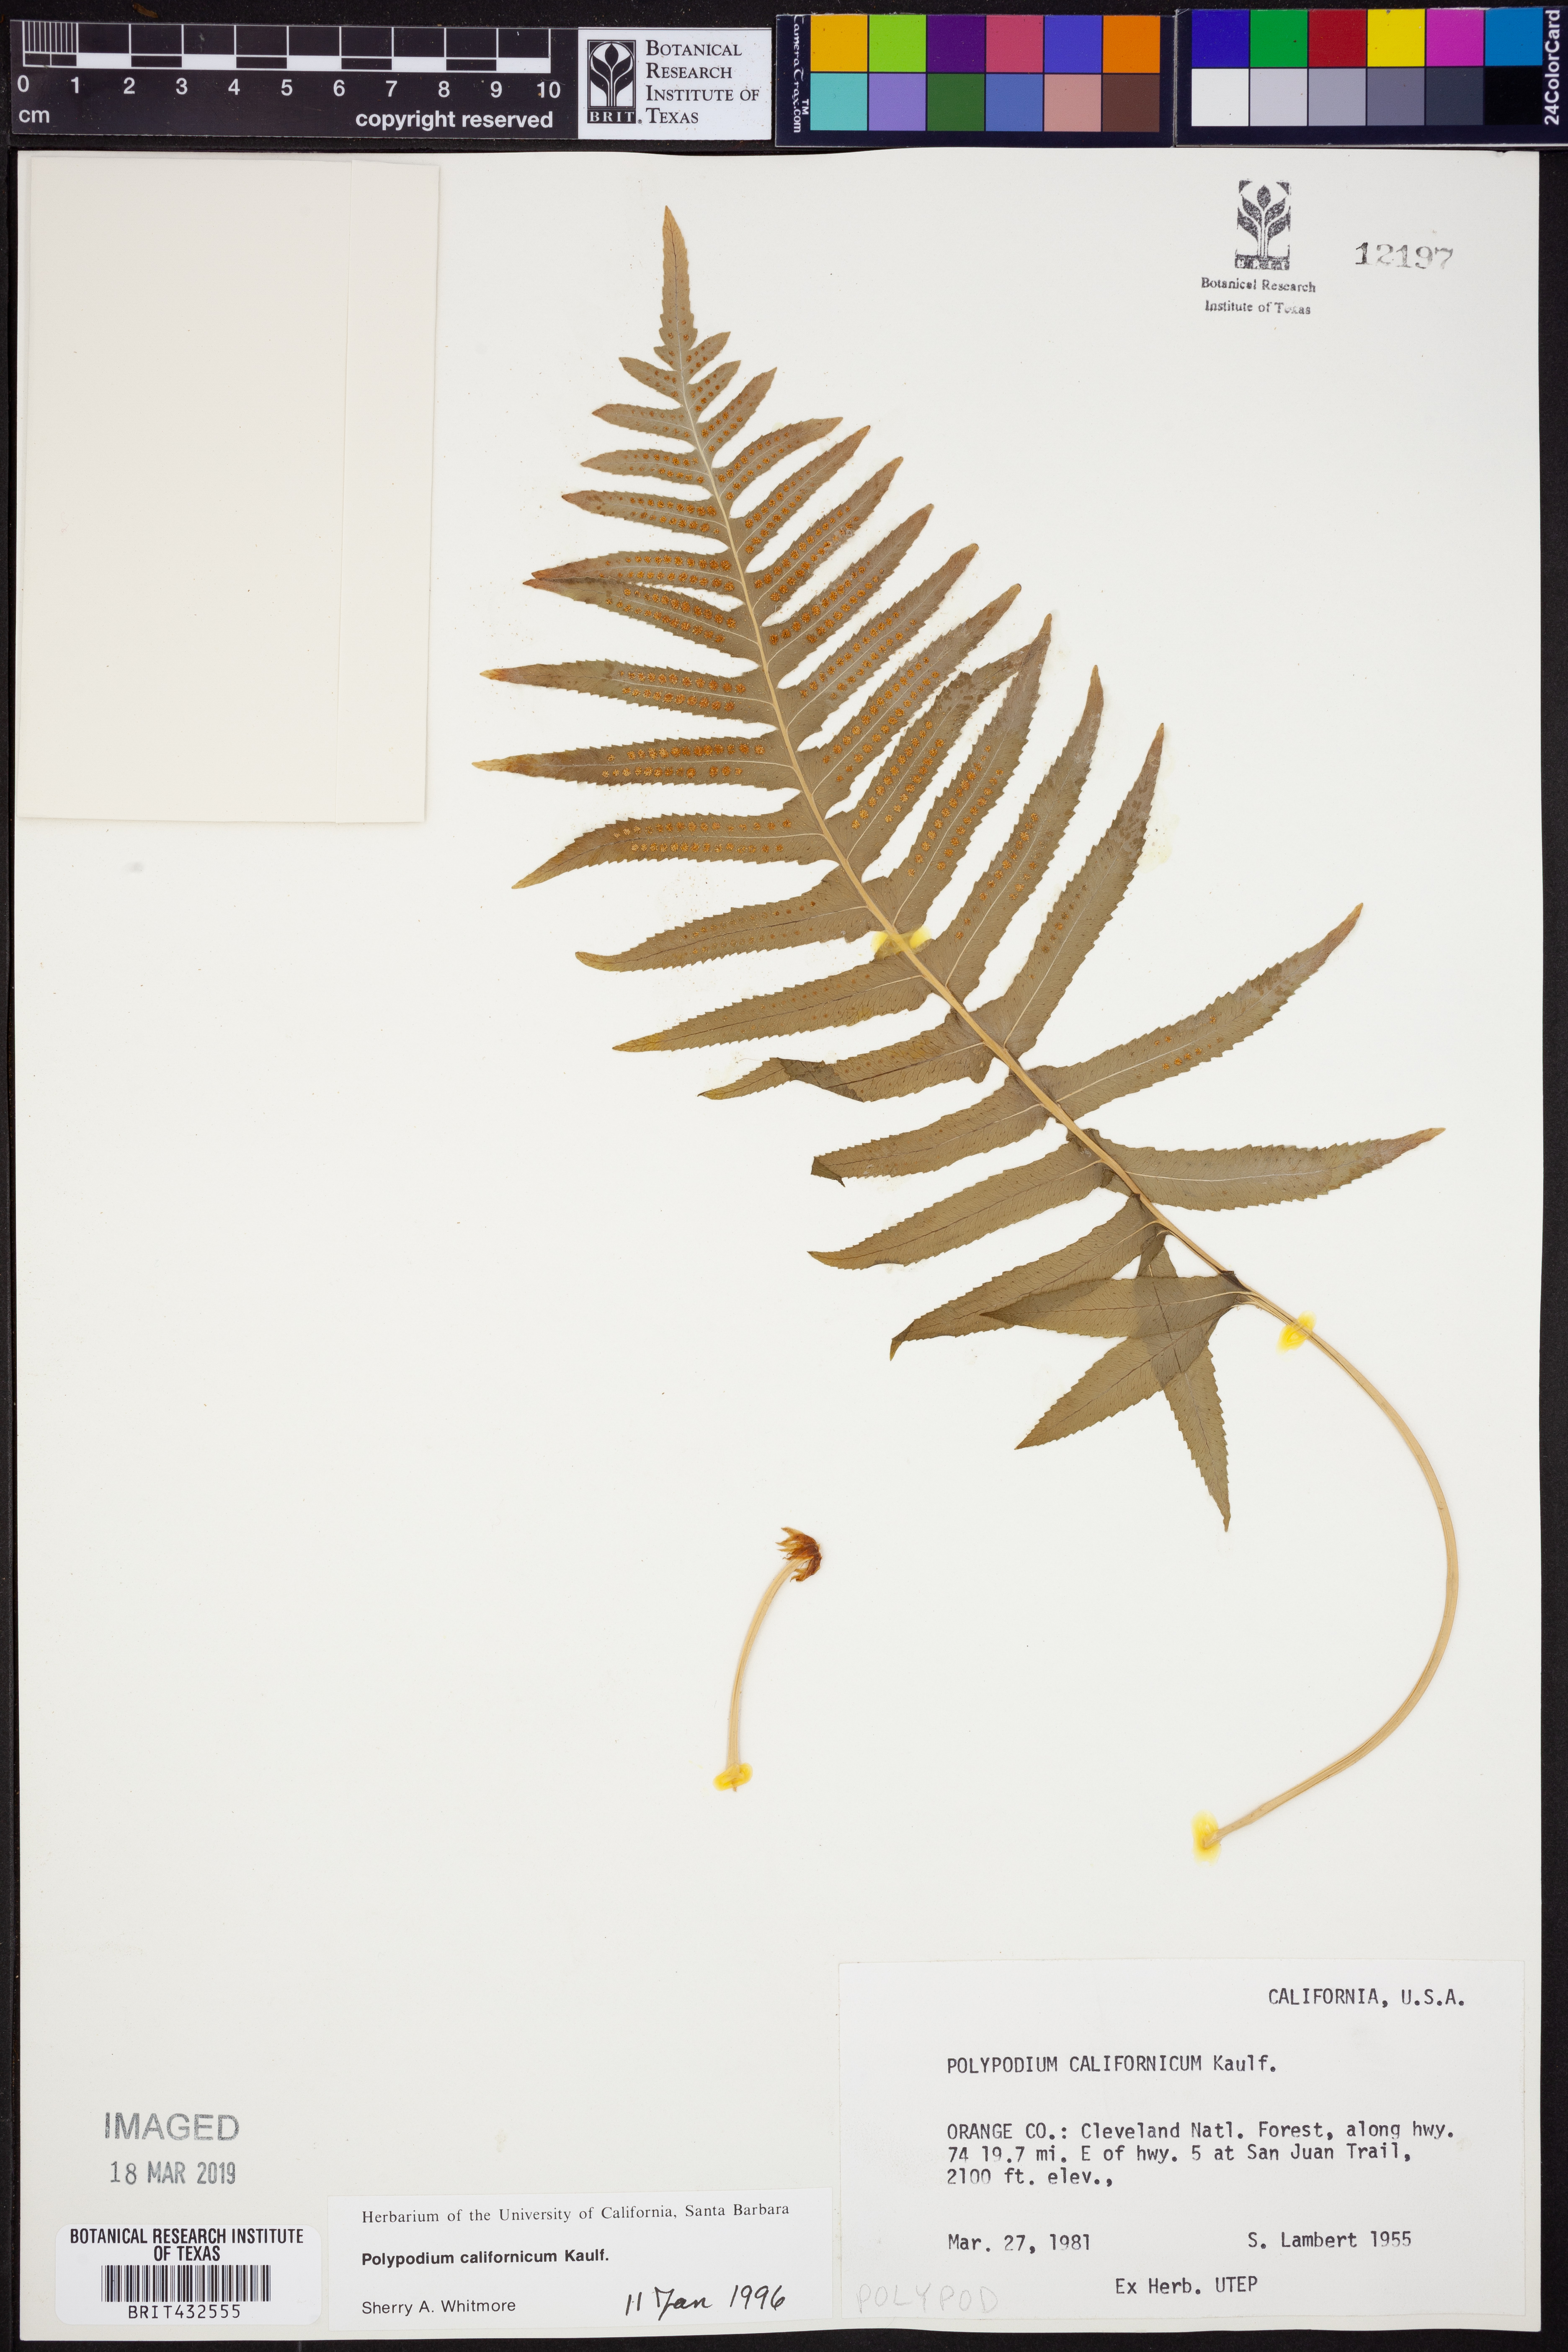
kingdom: Plantae
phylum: Tracheophyta
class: Polypodiopsida
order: Polypodiales
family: Polypodiaceae
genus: Polypodium
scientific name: Polypodium californicum
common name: California polypody
